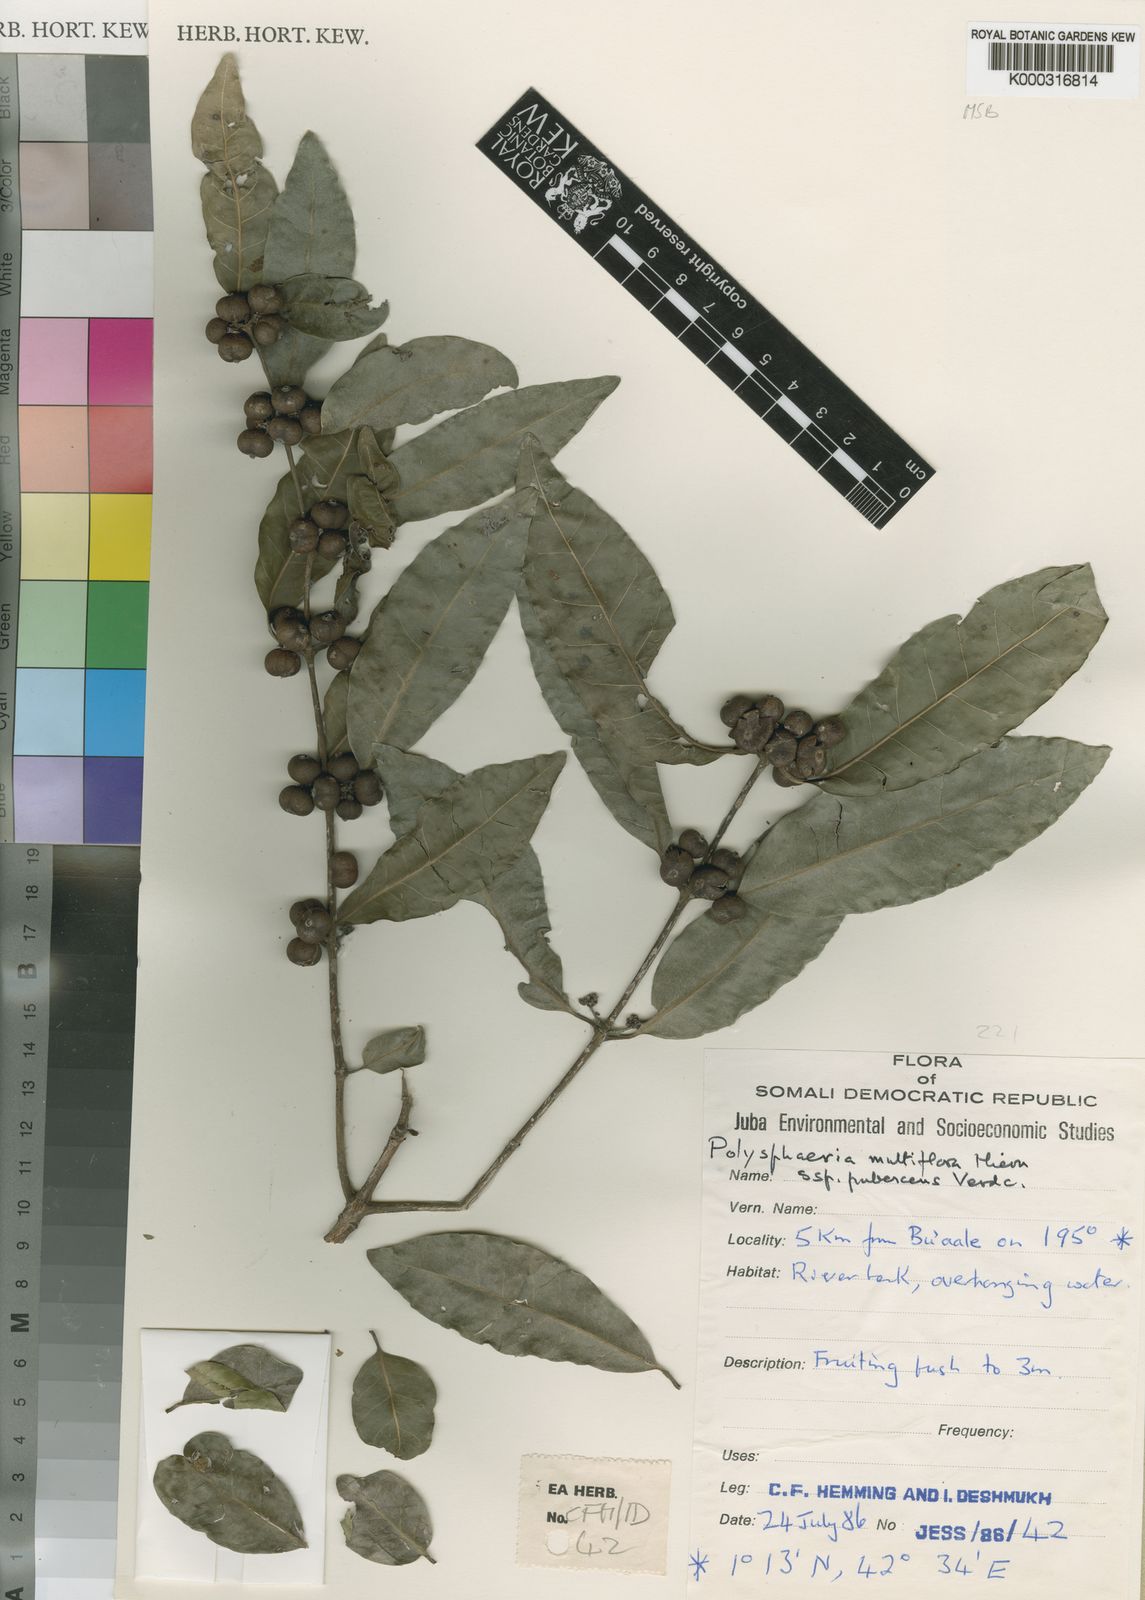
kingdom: Plantae
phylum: Tracheophyta
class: Magnoliopsida
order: Gentianales
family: Rubiaceae
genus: Polysphaeria
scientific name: Polysphaeria multiflora
